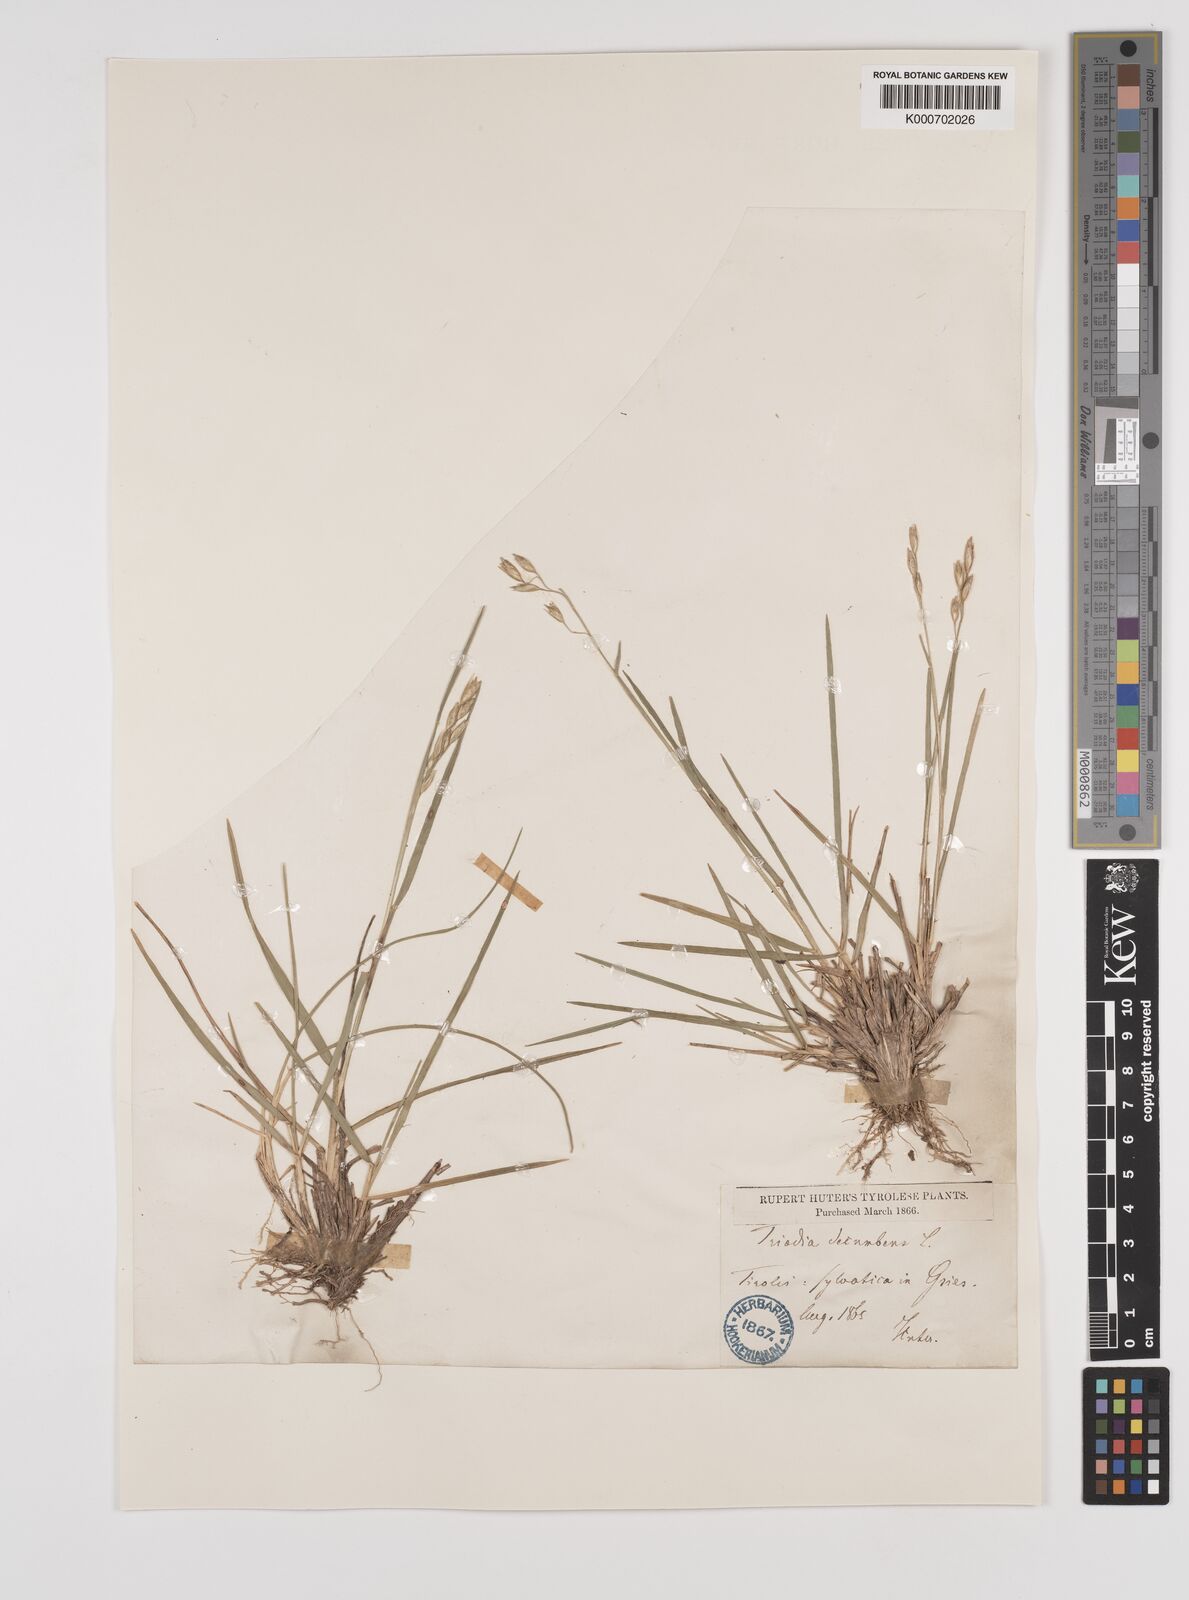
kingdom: Plantae
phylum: Tracheophyta
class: Liliopsida
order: Poales
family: Poaceae
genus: Danthonia
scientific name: Danthonia decumbens
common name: Common heathgrass
